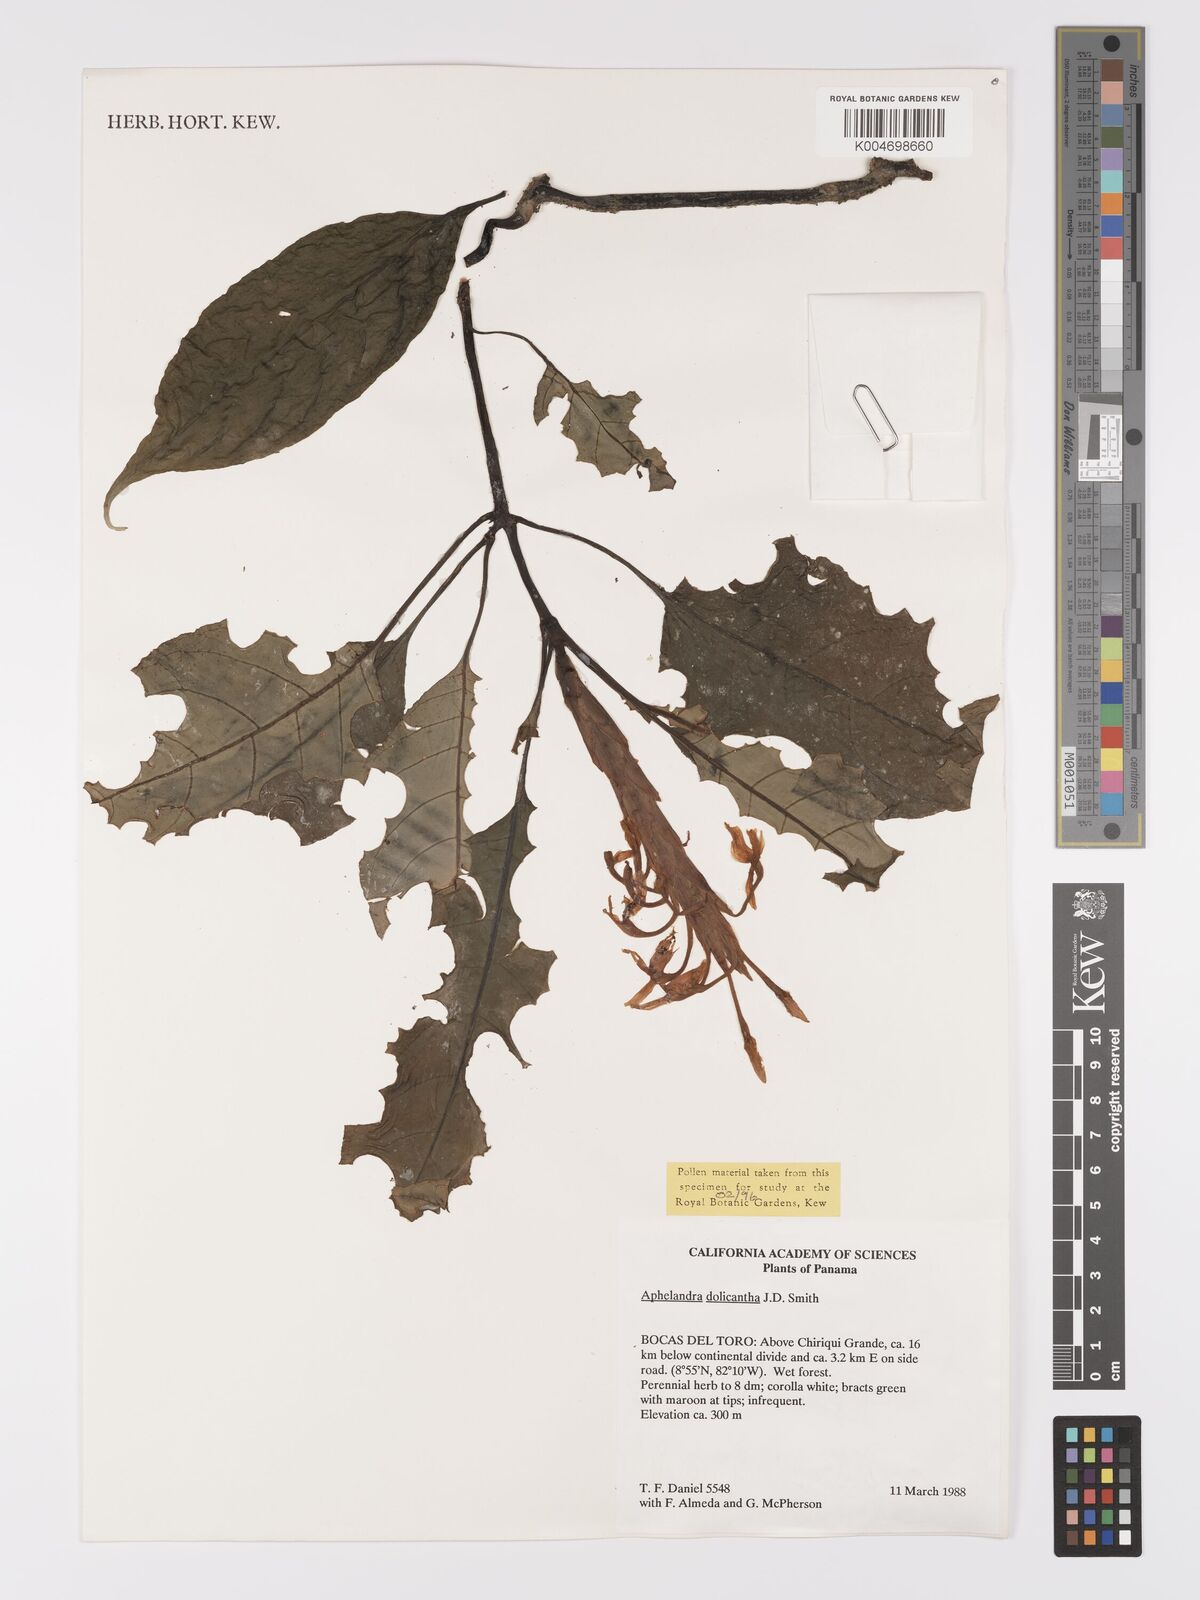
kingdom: Plantae
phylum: Tracheophyta
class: Magnoliopsida
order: Lamiales
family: Acanthaceae
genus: Aphelandra
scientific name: Aphelandra dolichantha
